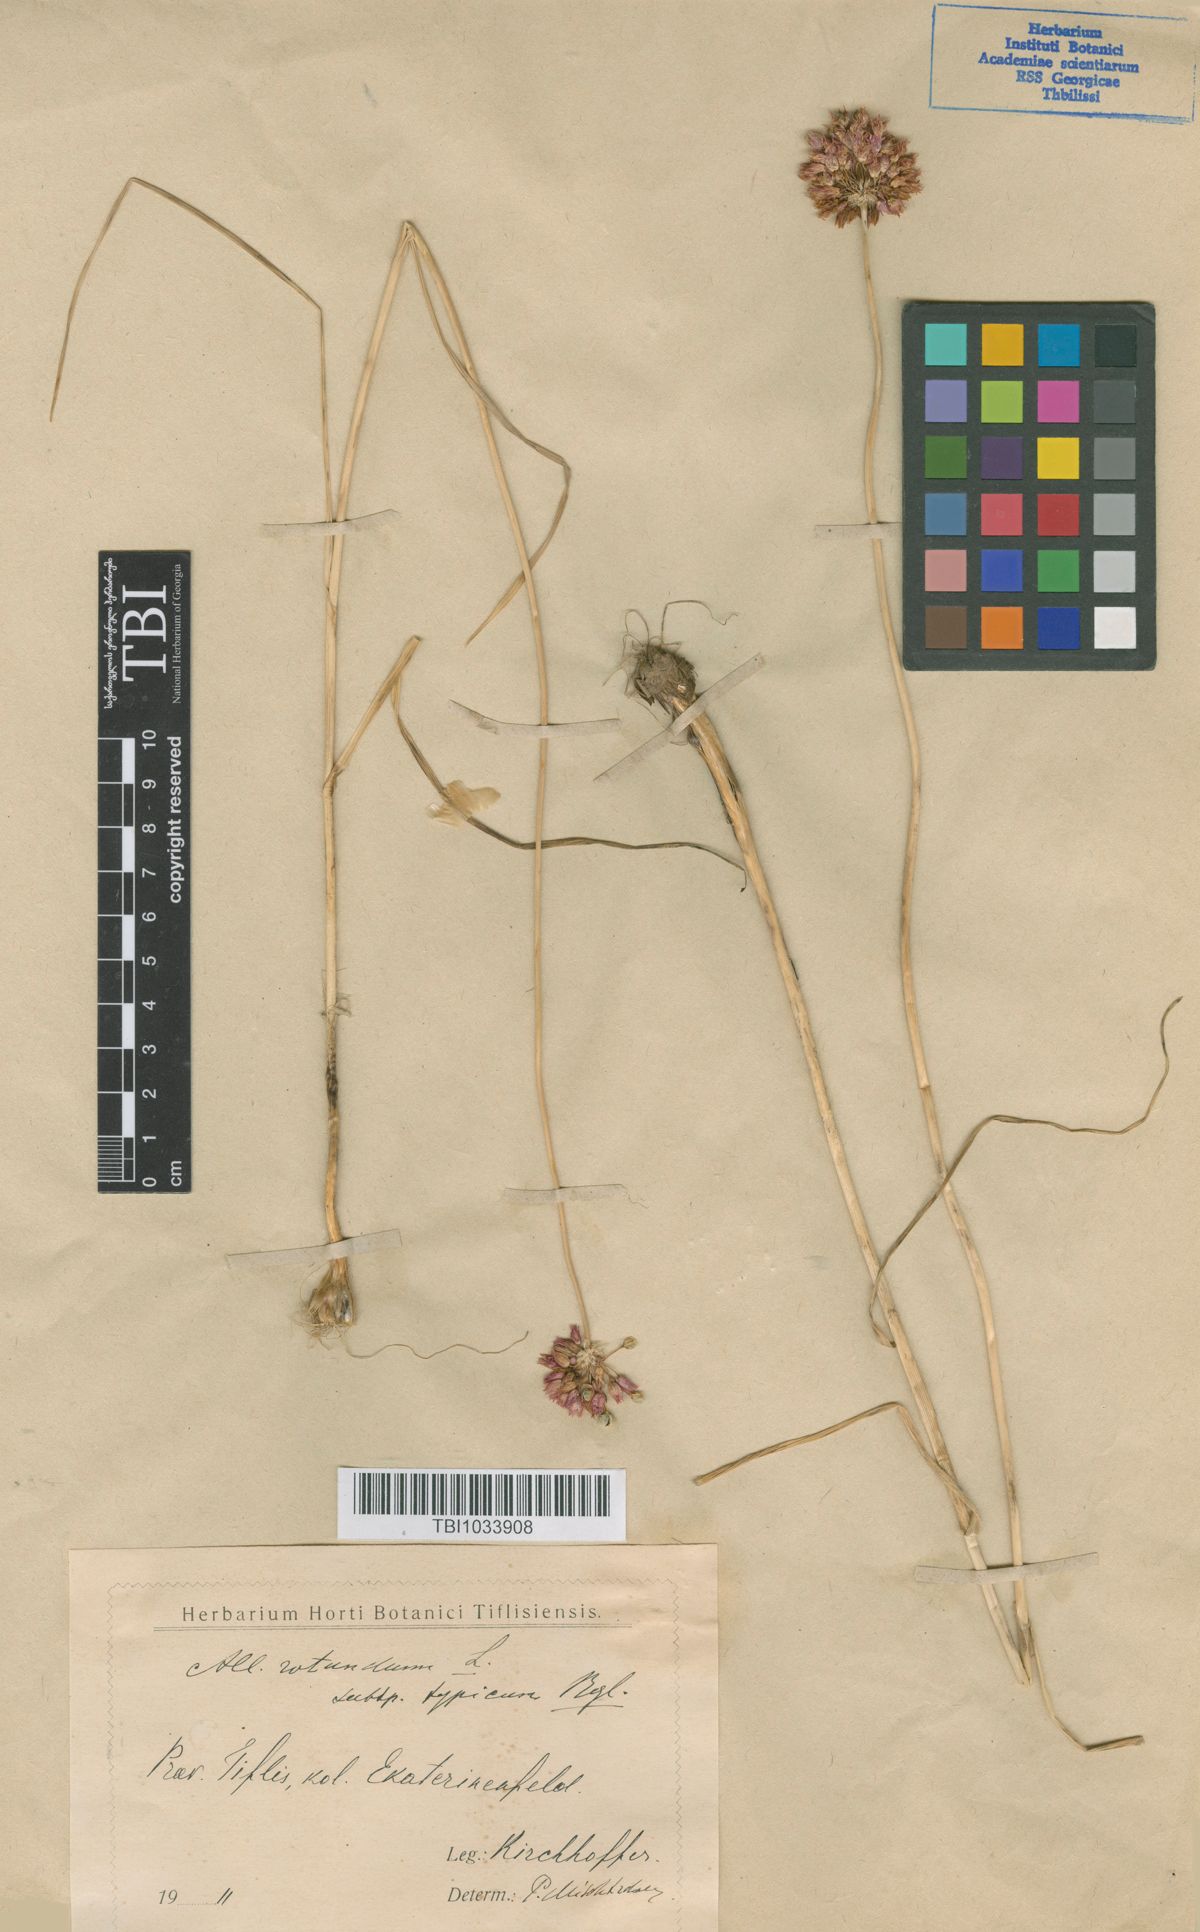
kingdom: Plantae
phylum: Tracheophyta
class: Liliopsida
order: Asparagales
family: Amaryllidaceae
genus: Allium
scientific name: Allium rotundum
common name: Sand leek
